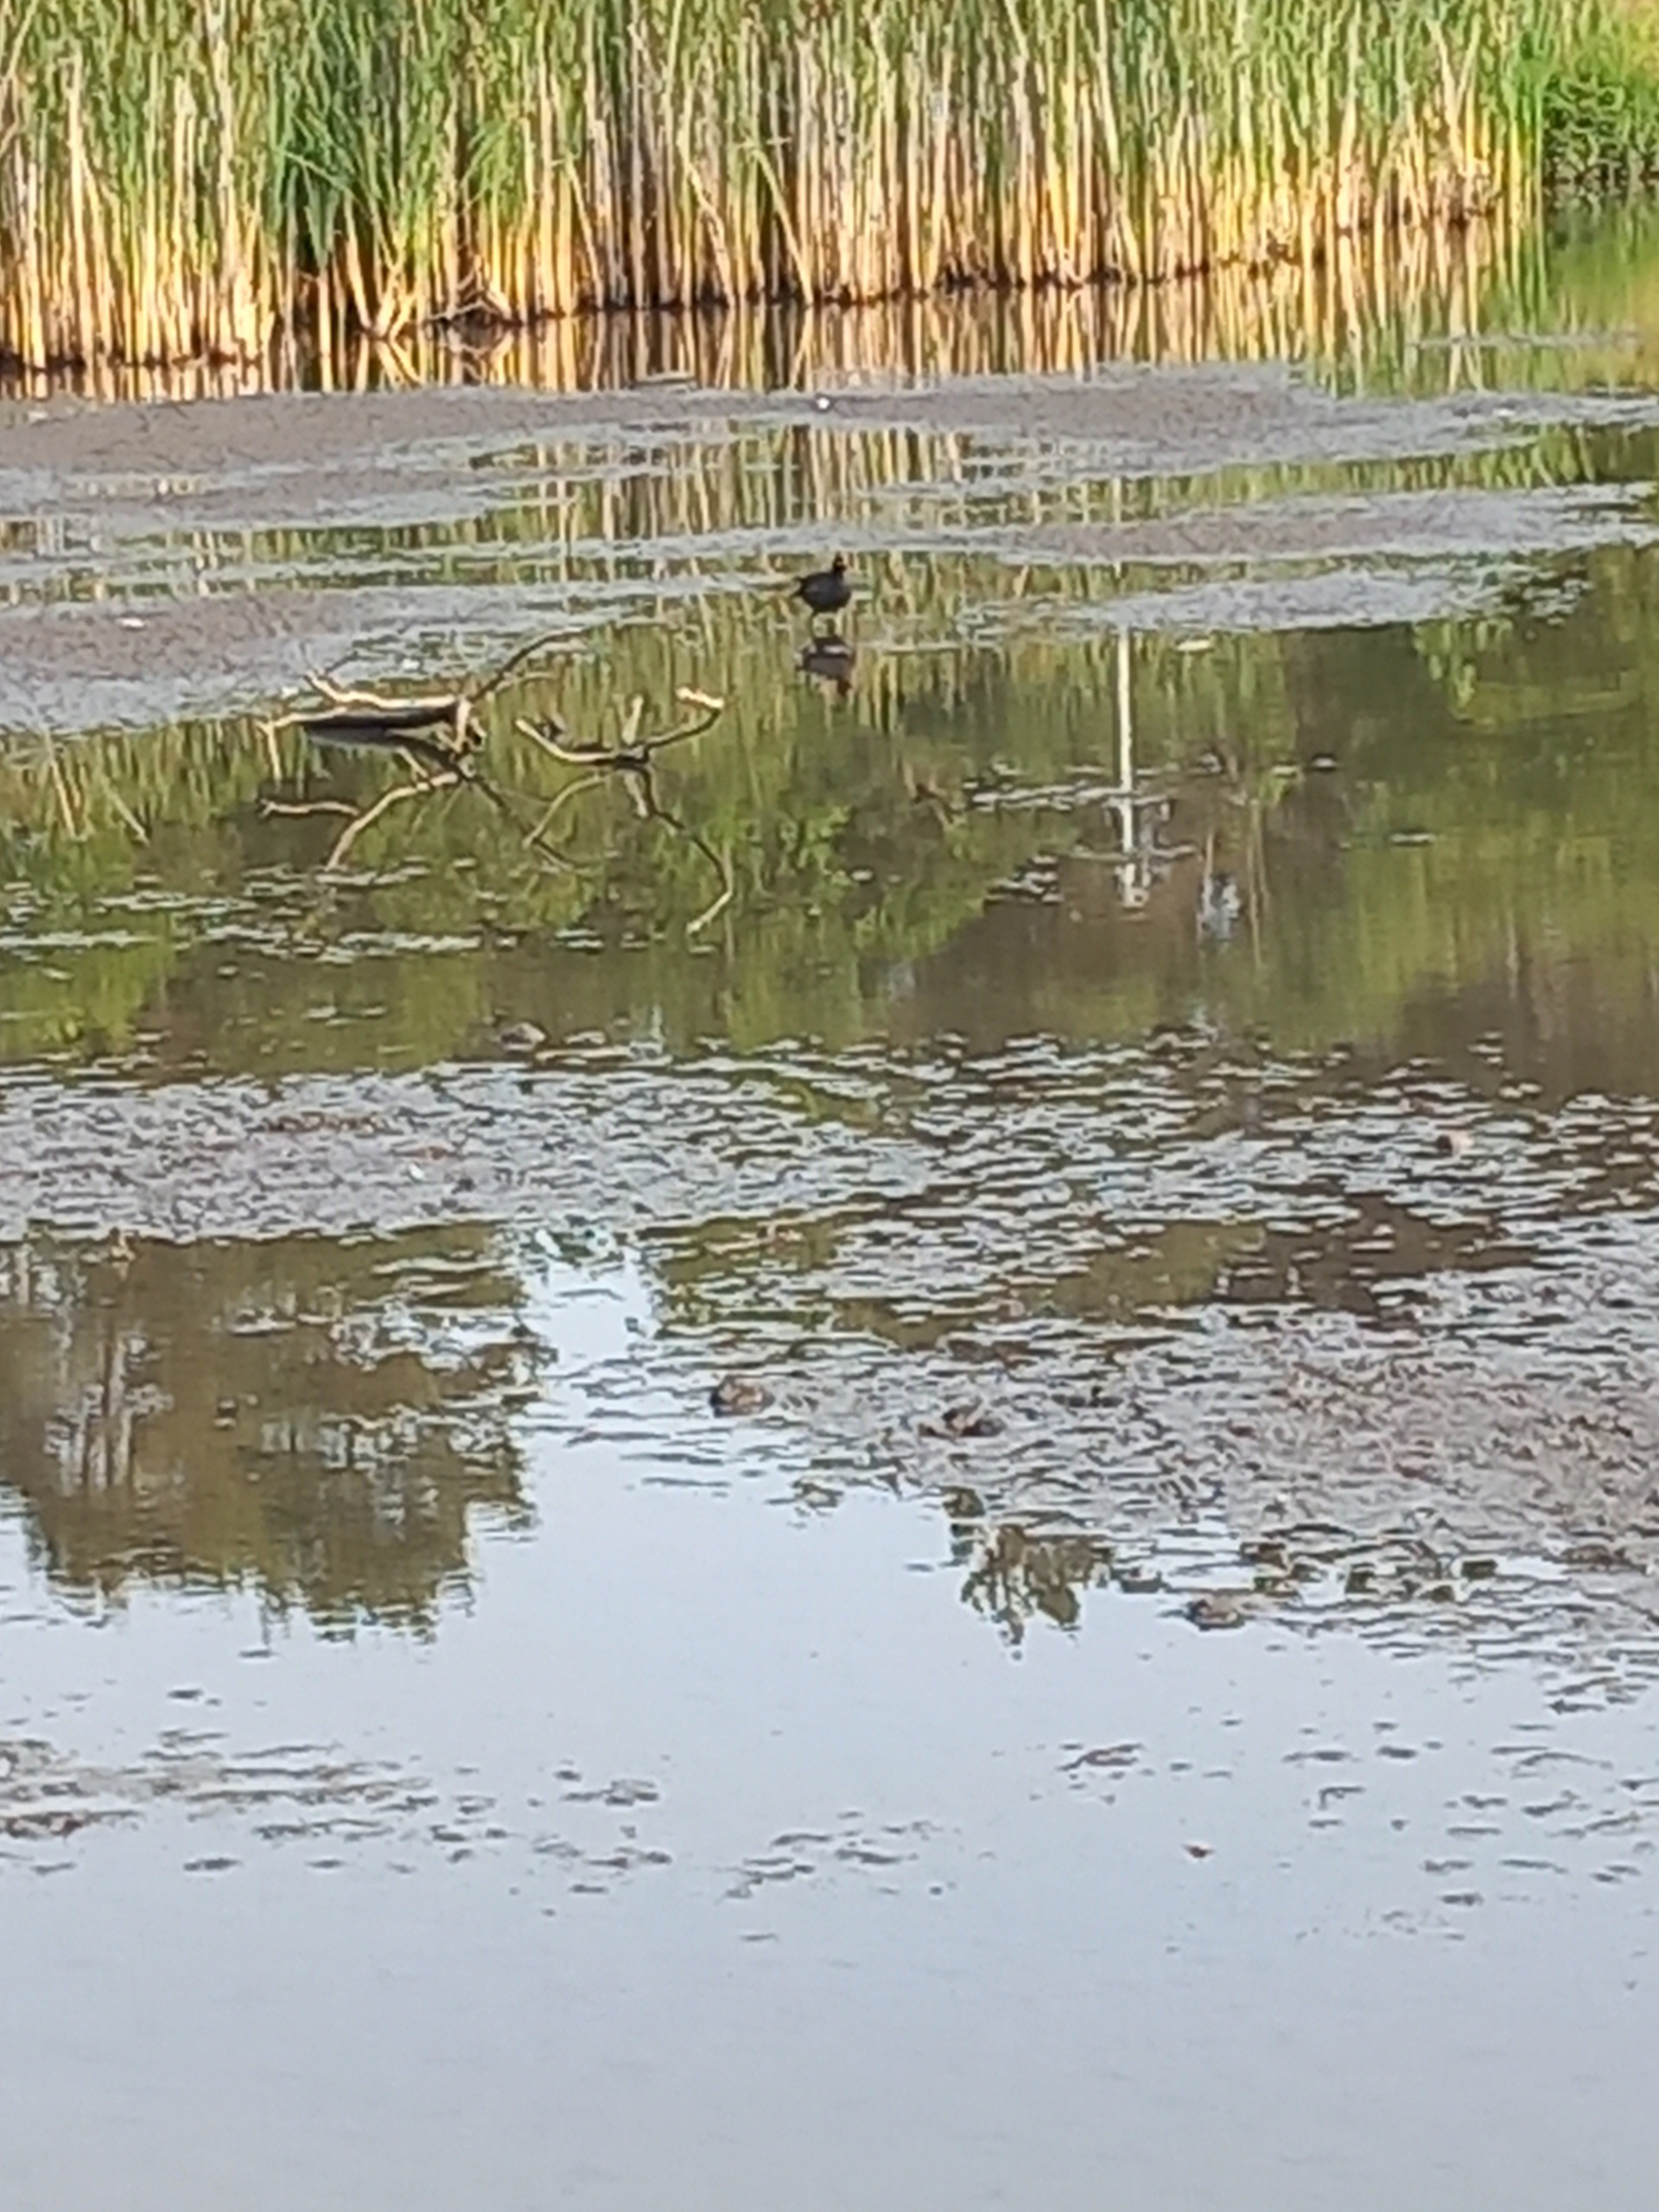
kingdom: Animalia
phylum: Chordata
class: Aves
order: Gruiformes
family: Rallidae
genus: Gallinula
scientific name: Gallinula chloropus
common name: Grønbenet rørhøne
